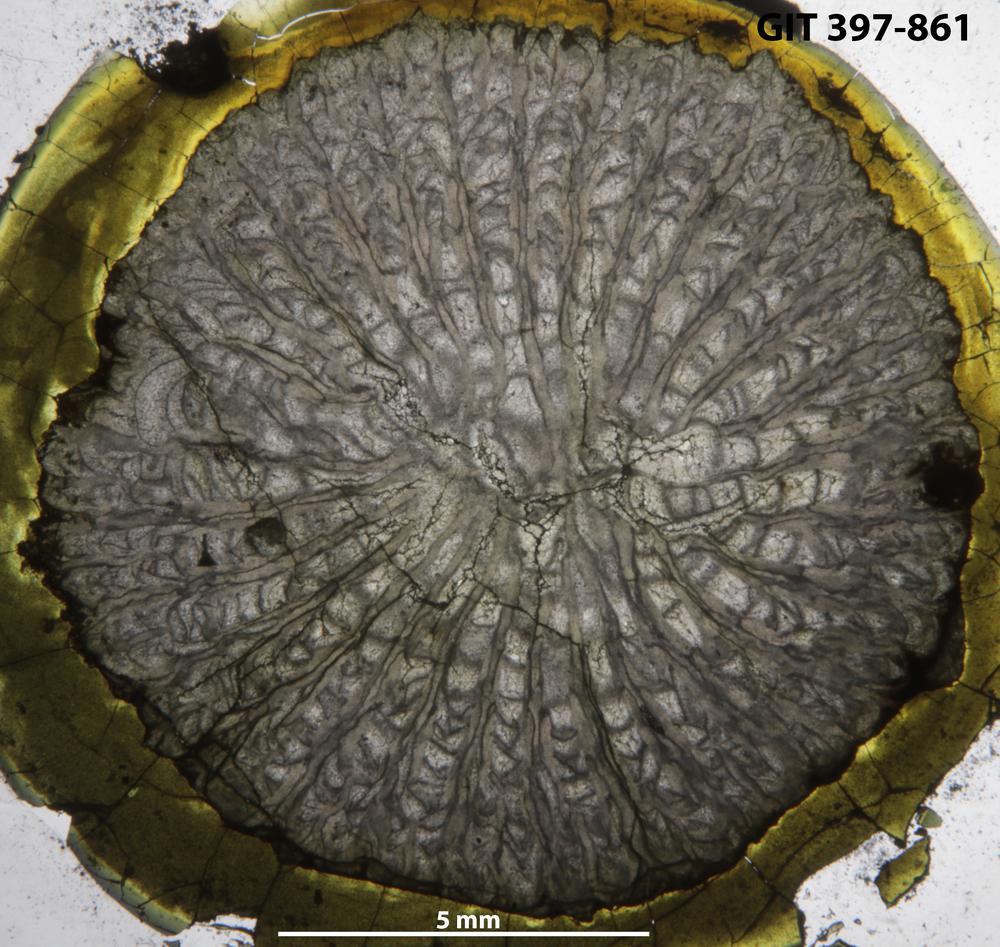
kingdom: Animalia
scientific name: Animalia
